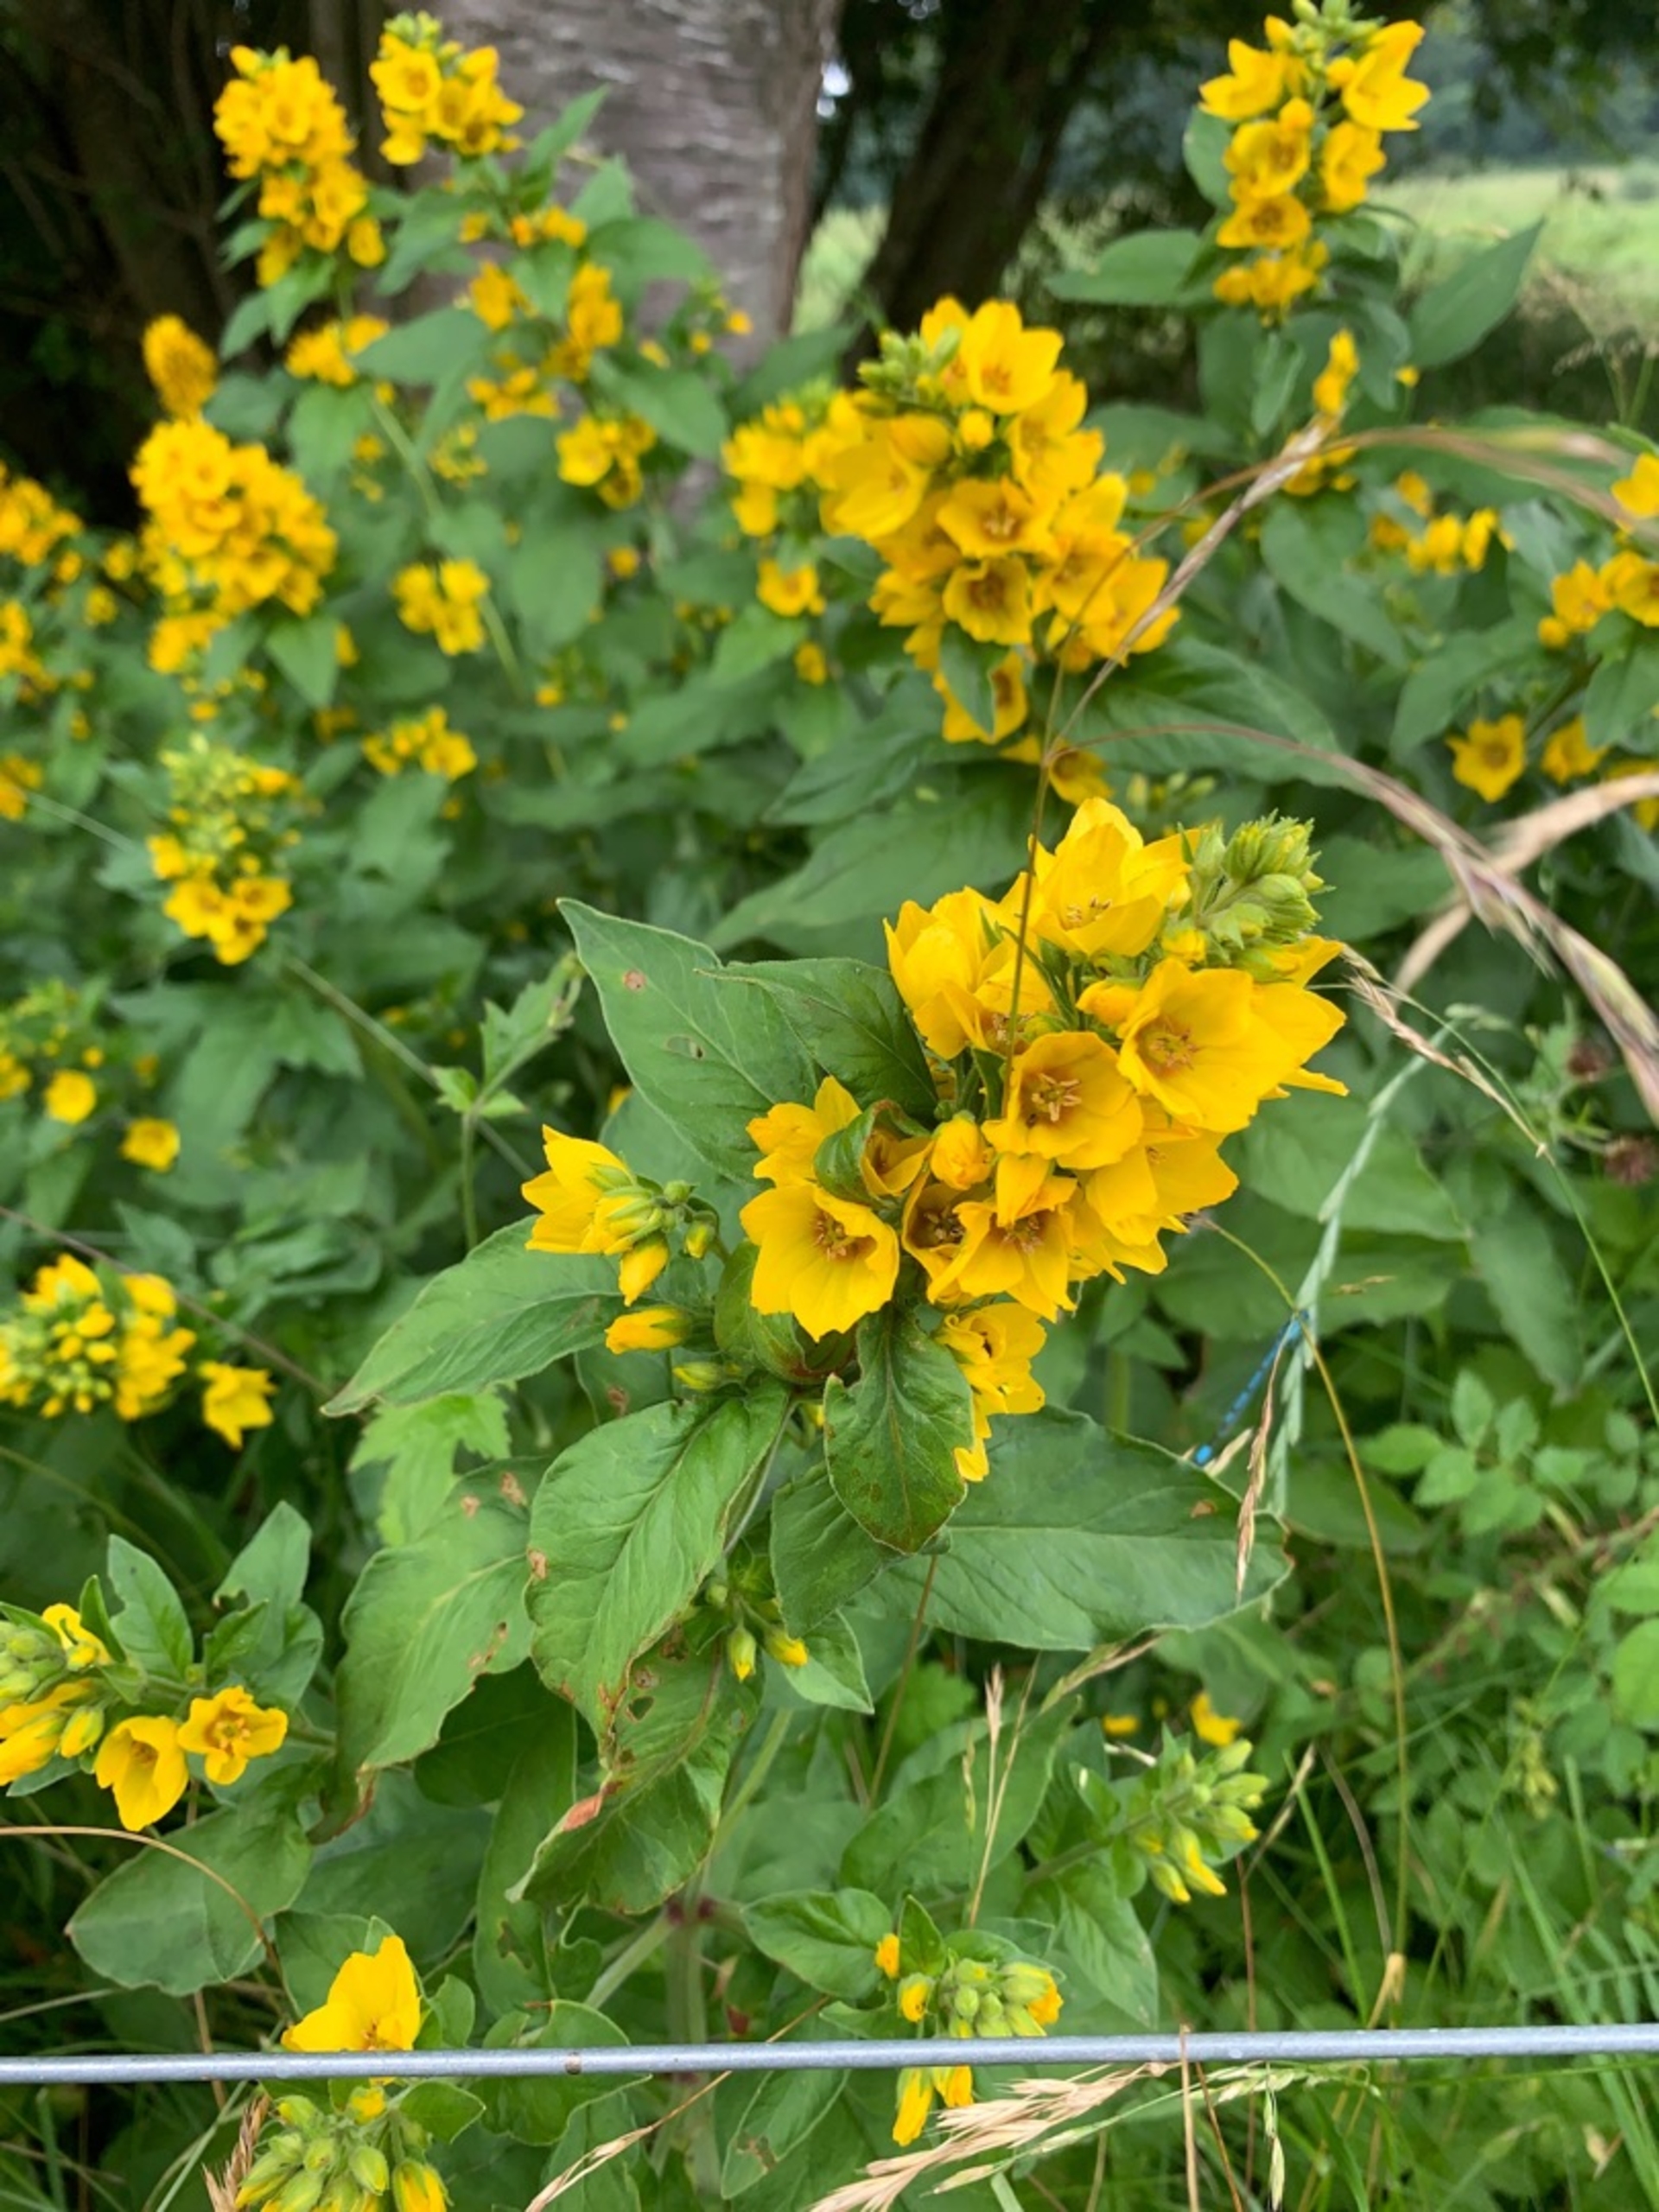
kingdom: Plantae
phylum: Tracheophyta
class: Magnoliopsida
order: Ericales
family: Primulaceae
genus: Lysimachia
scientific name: Lysimachia punctata
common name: Prikbladet fredløs
